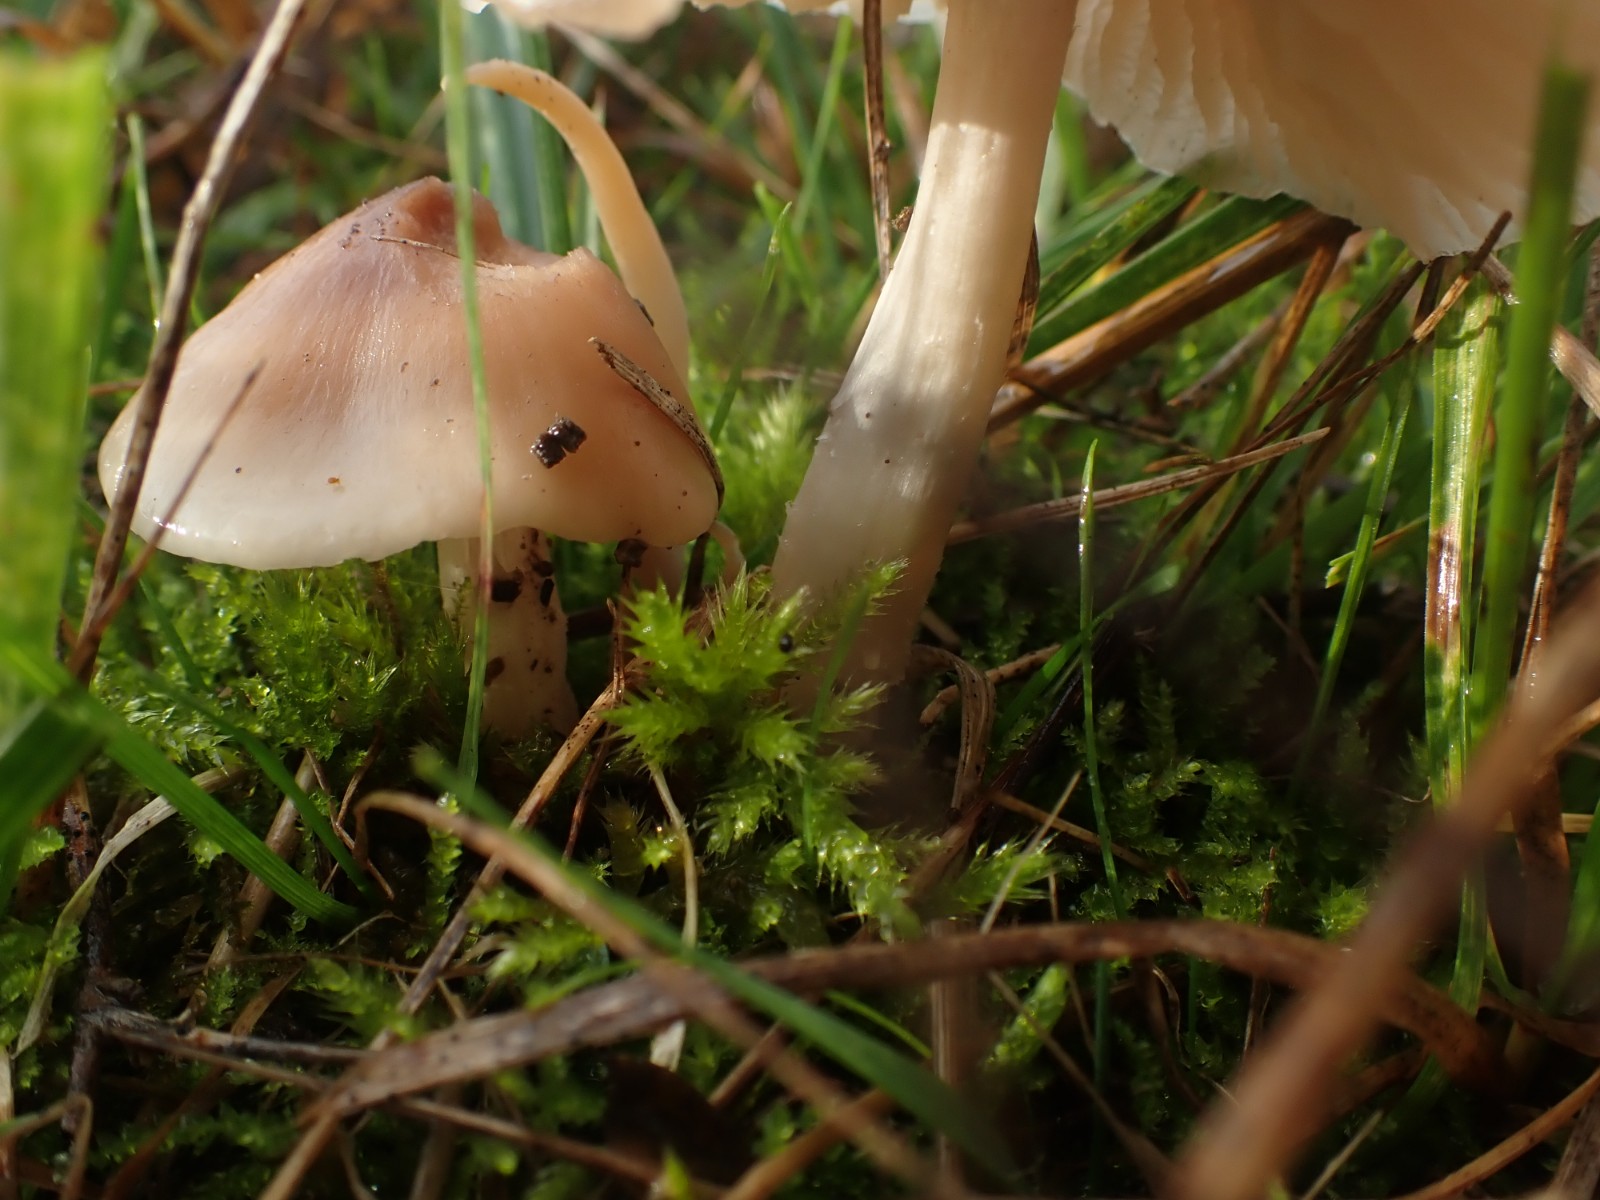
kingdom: Fungi
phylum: Basidiomycota
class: Agaricomycetes
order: Agaricales
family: Hygrophoraceae
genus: Cuphophyllus
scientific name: Cuphophyllus colemannianus
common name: rødbrun vokshat
